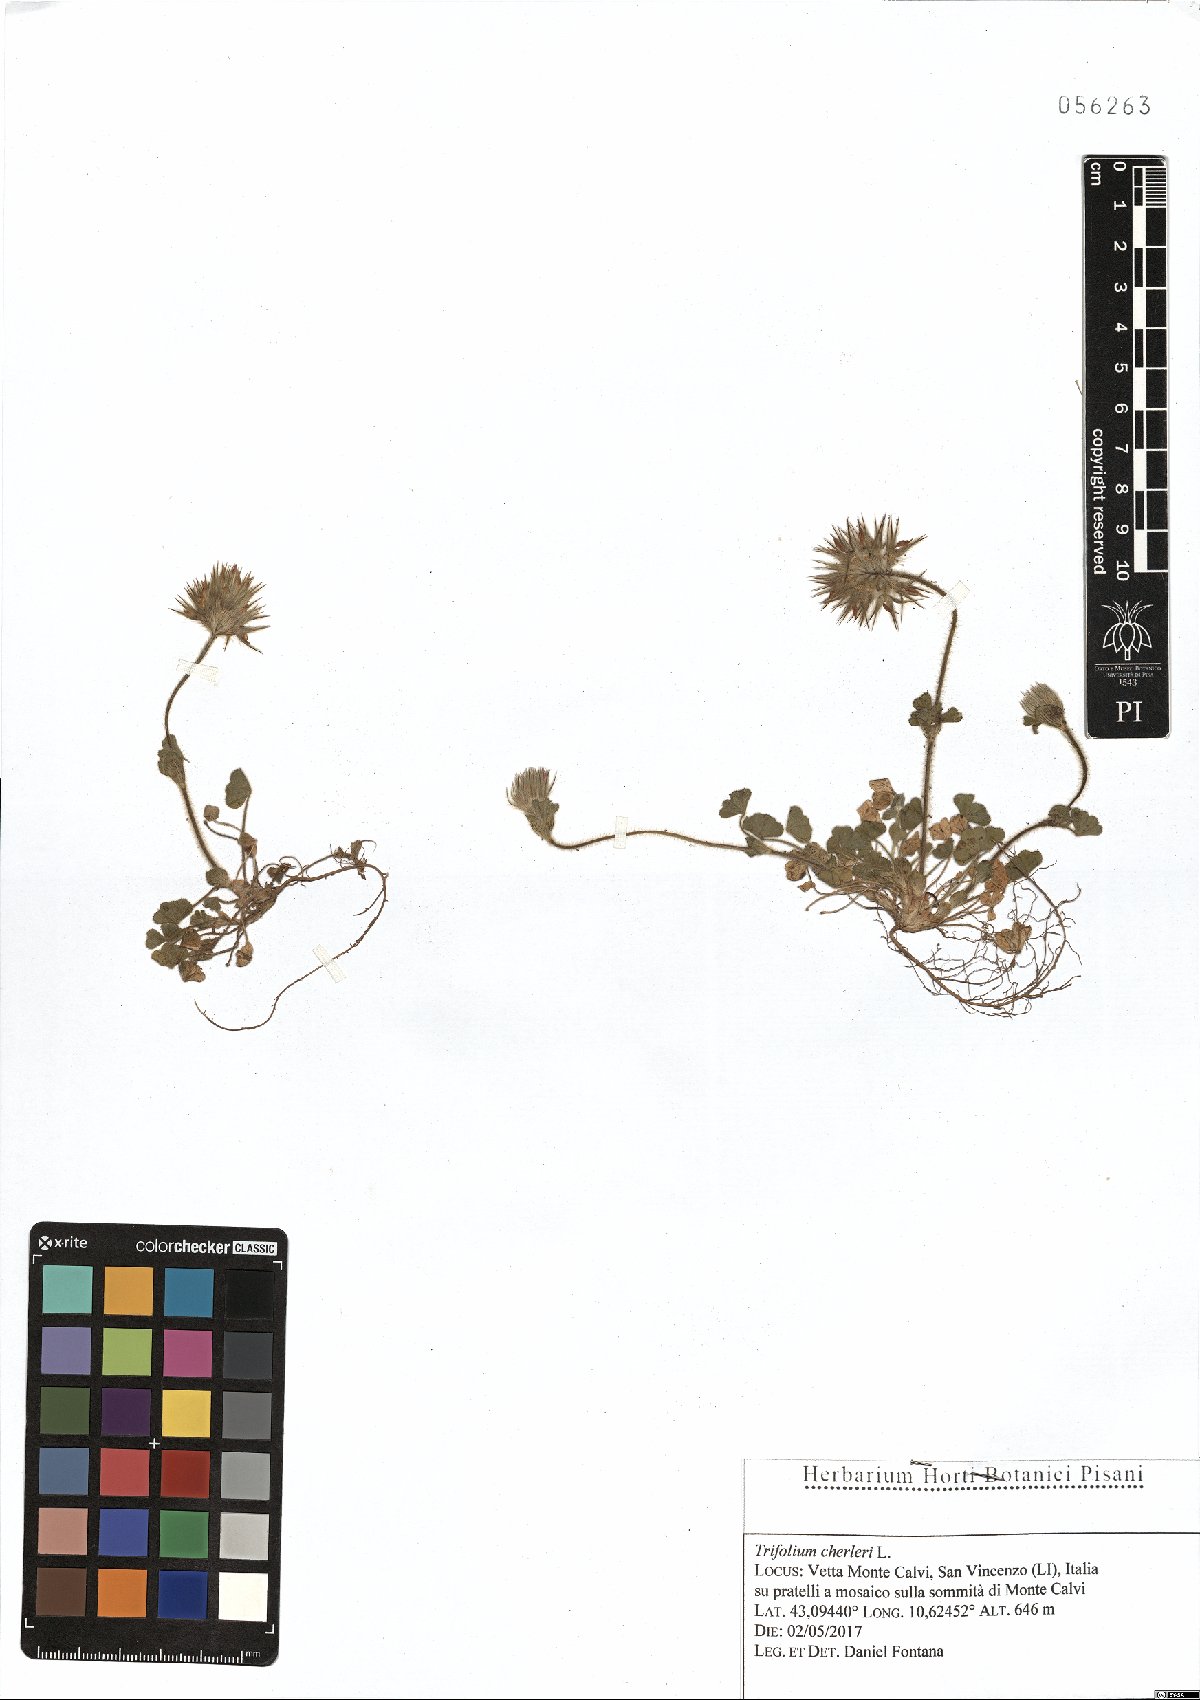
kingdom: Plantae
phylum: Tracheophyta
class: Magnoliopsida
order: Fabales
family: Fabaceae
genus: Trifolium
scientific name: Trifolium cherleri
